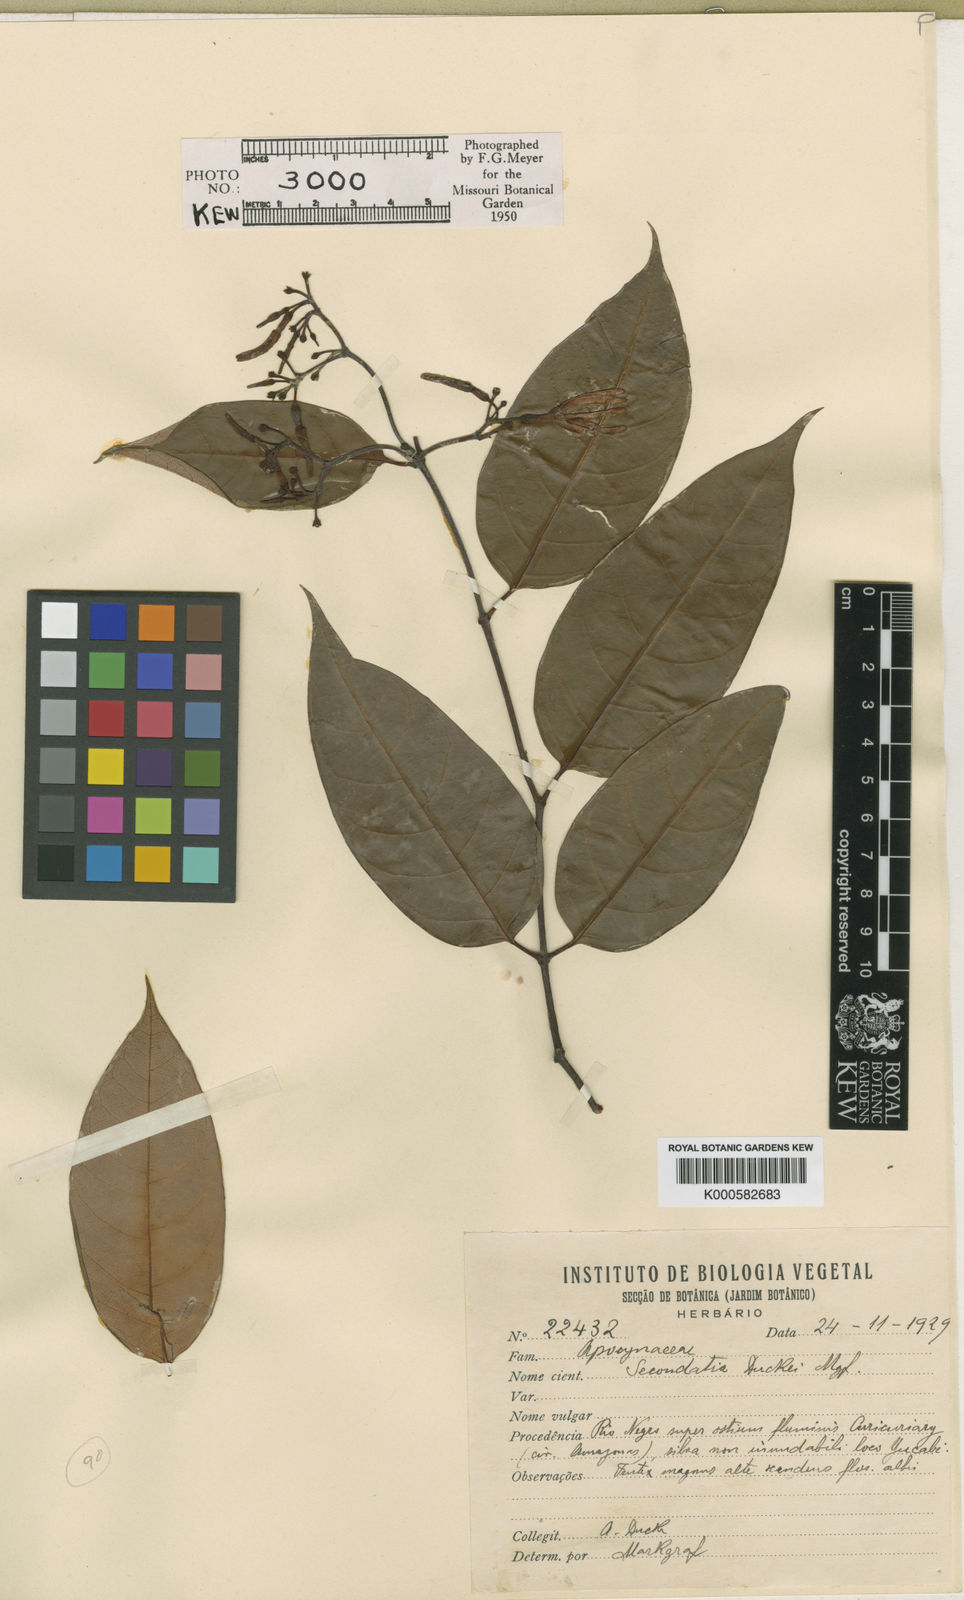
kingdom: Plantae
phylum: Tracheophyta
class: Magnoliopsida
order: Gentianales
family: Apocynaceae
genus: Secondatia
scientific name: Secondatia duckei
